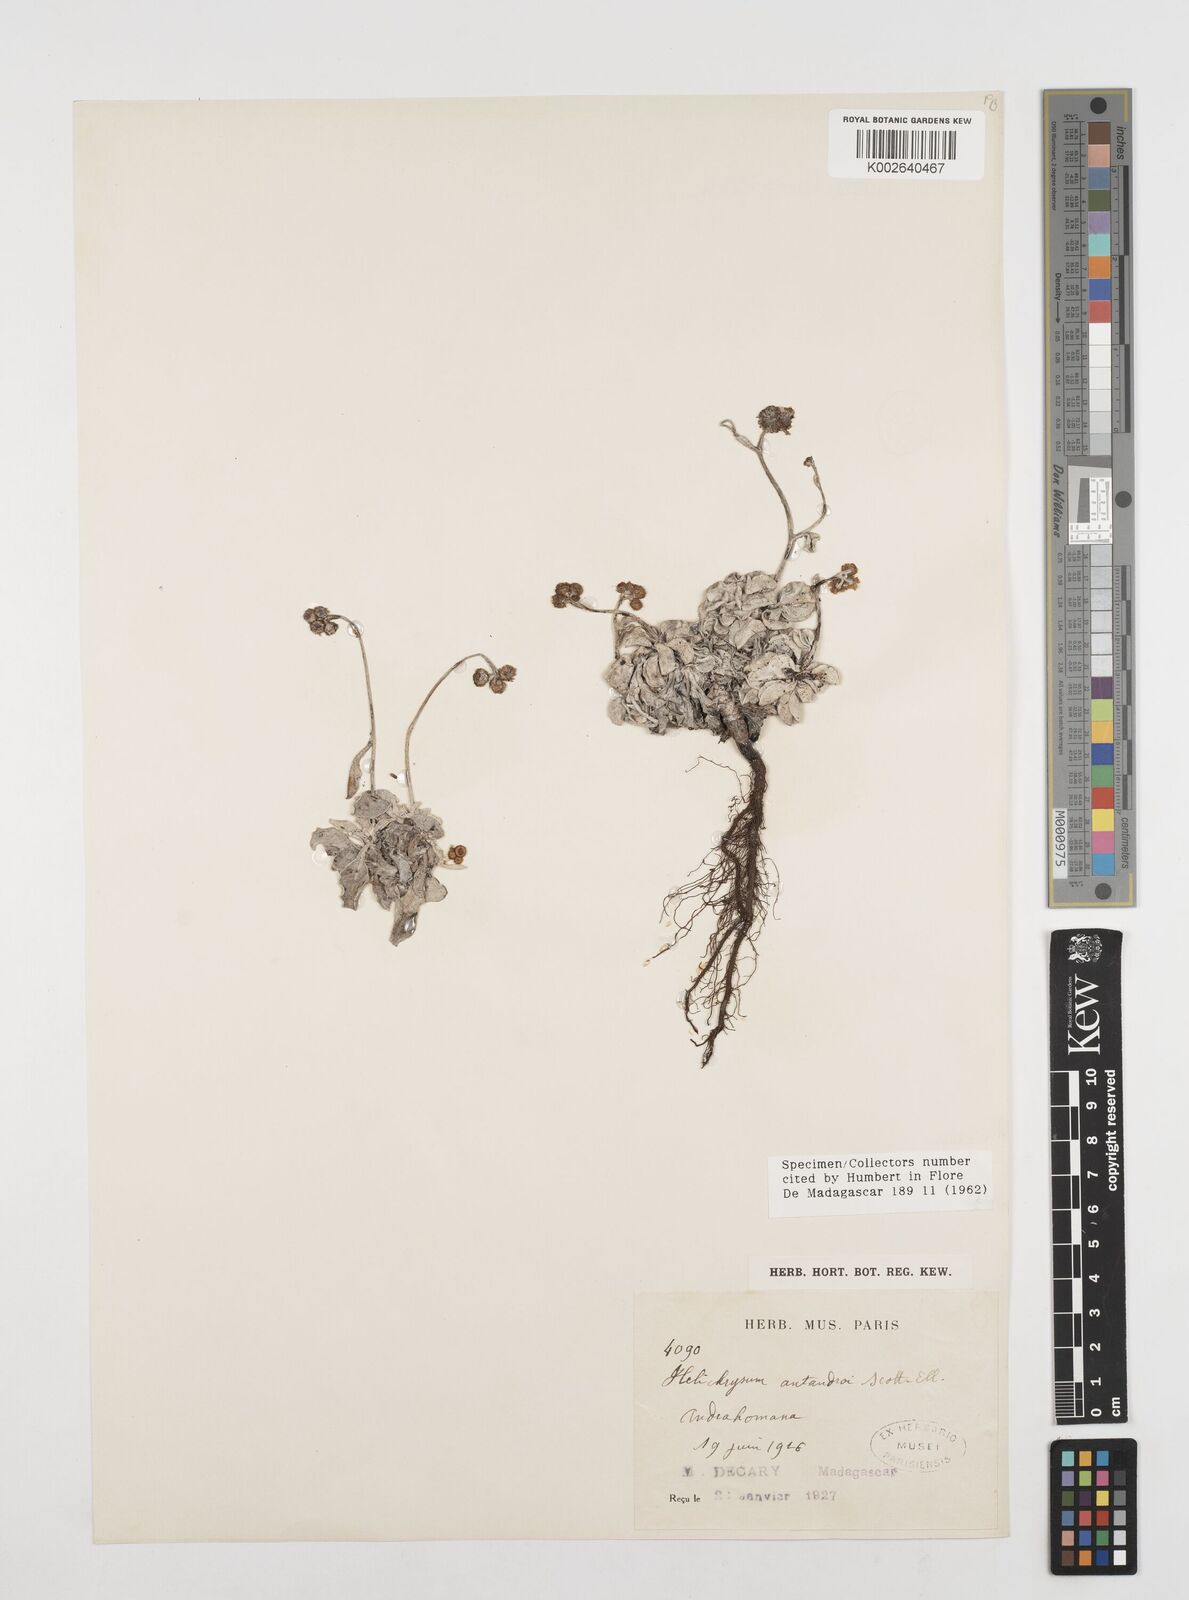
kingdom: Plantae
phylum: Tracheophyta
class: Magnoliopsida
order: Asterales
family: Asteraceae
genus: Helichrysum
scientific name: Helichrysum antandroi
